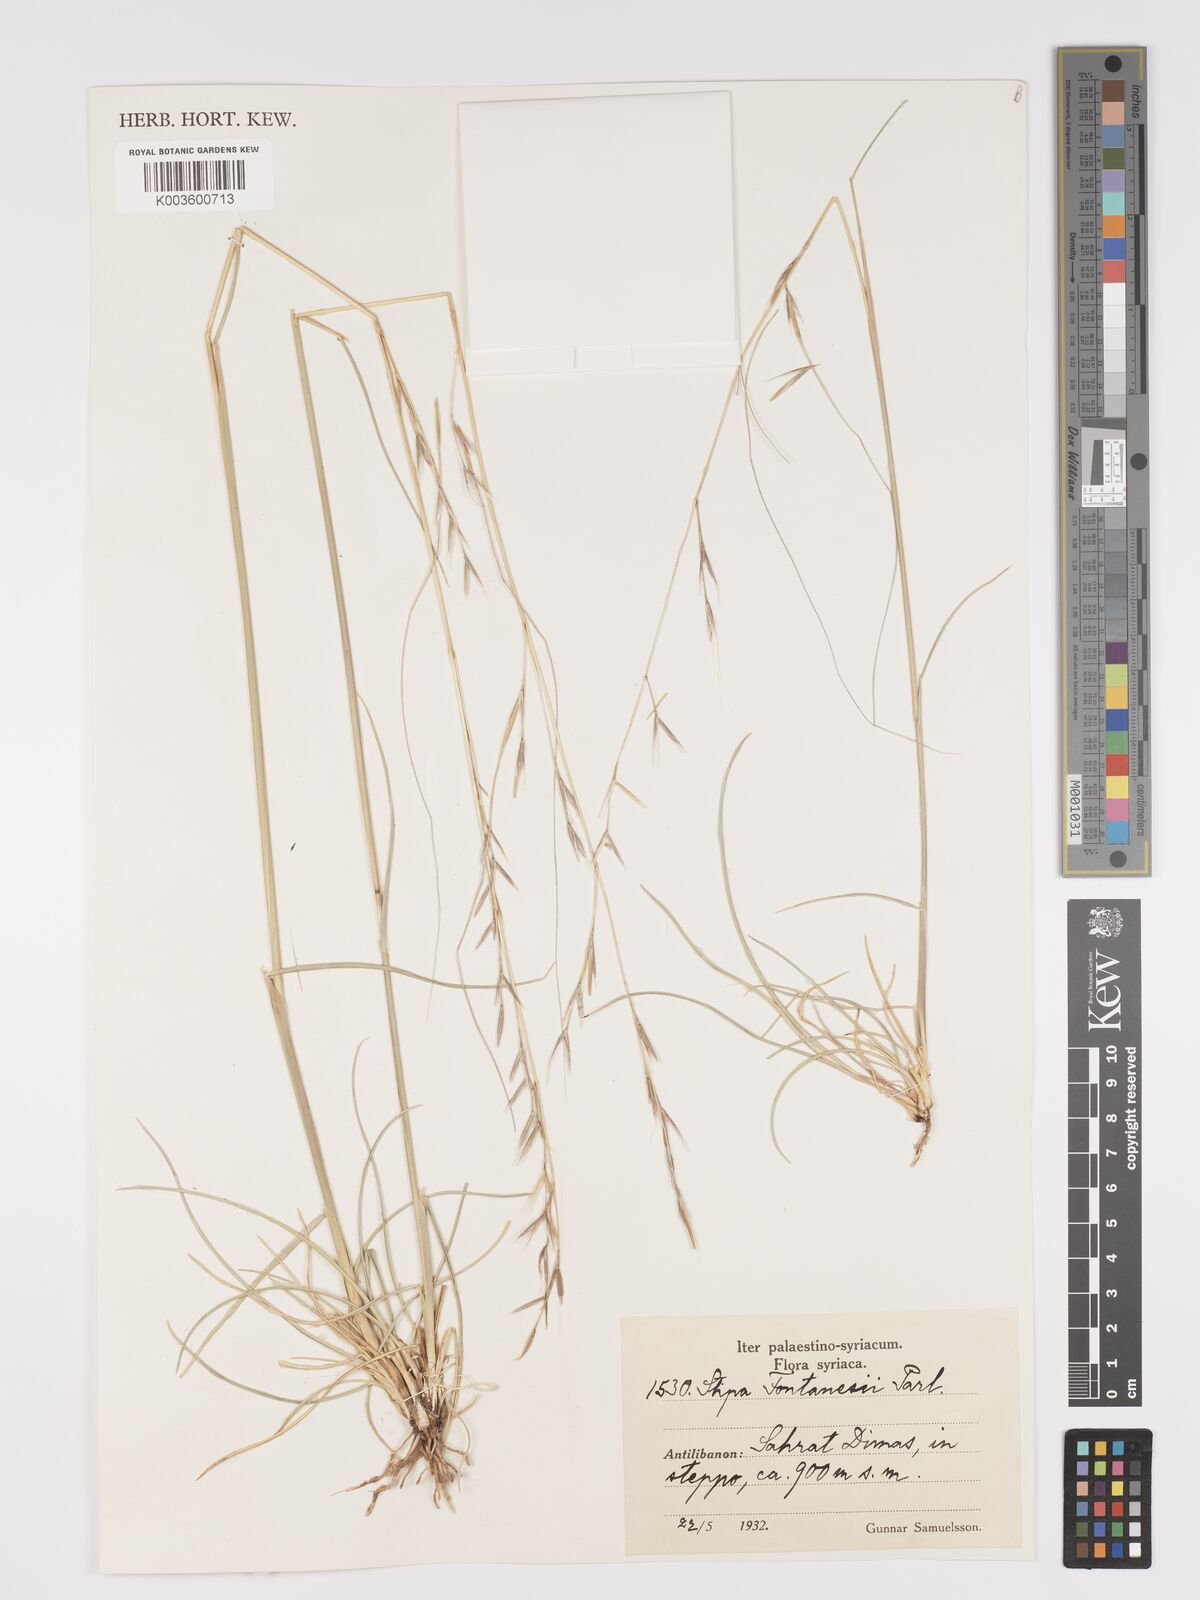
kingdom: Plantae
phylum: Tracheophyta
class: Liliopsida
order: Poales
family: Poaceae
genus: Stipa
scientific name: Stipa holosericea
